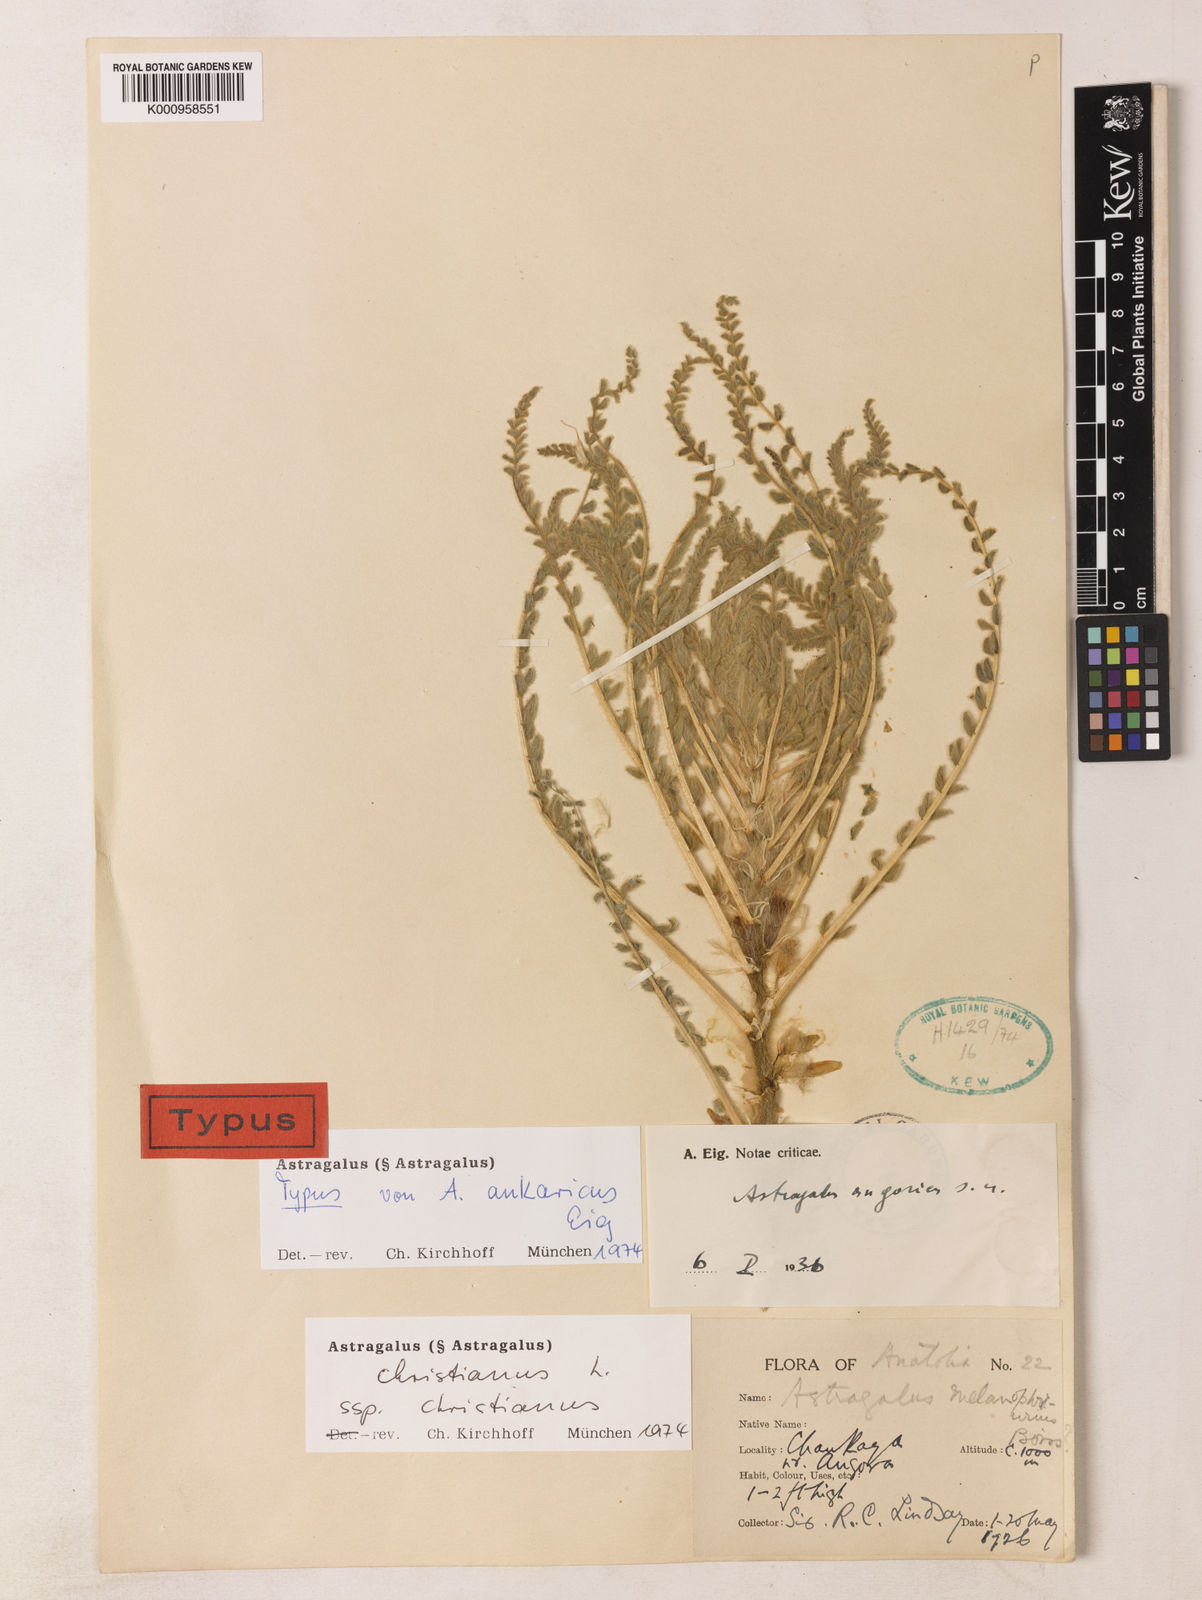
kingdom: Plantae
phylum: Tracheophyta
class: Magnoliopsida
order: Fabales
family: Fabaceae
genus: Astragalus
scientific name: Astragalus christianus
